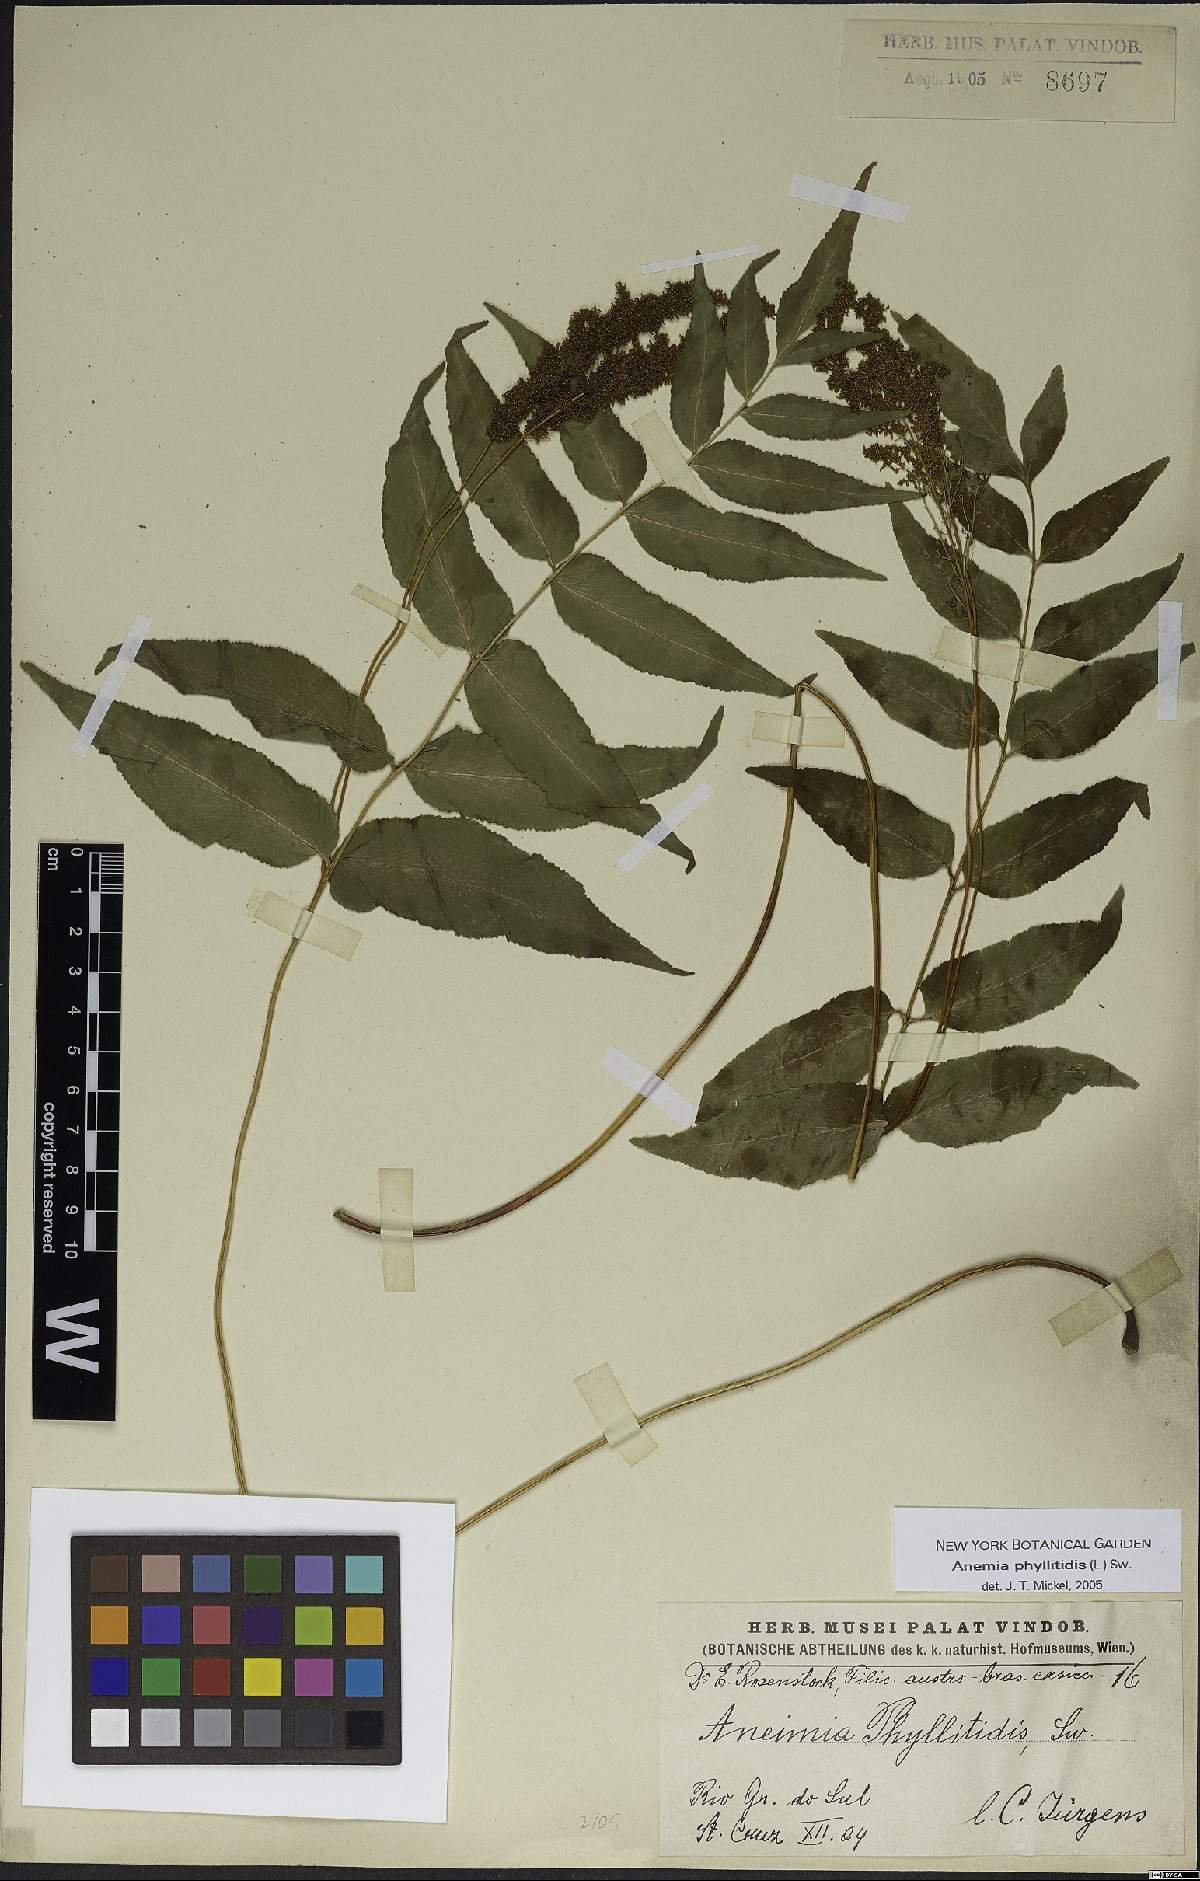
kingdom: Plantae
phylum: Tracheophyta
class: Polypodiopsida
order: Schizaeales
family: Anemiaceae
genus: Anemia
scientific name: Anemia phyllitidis
